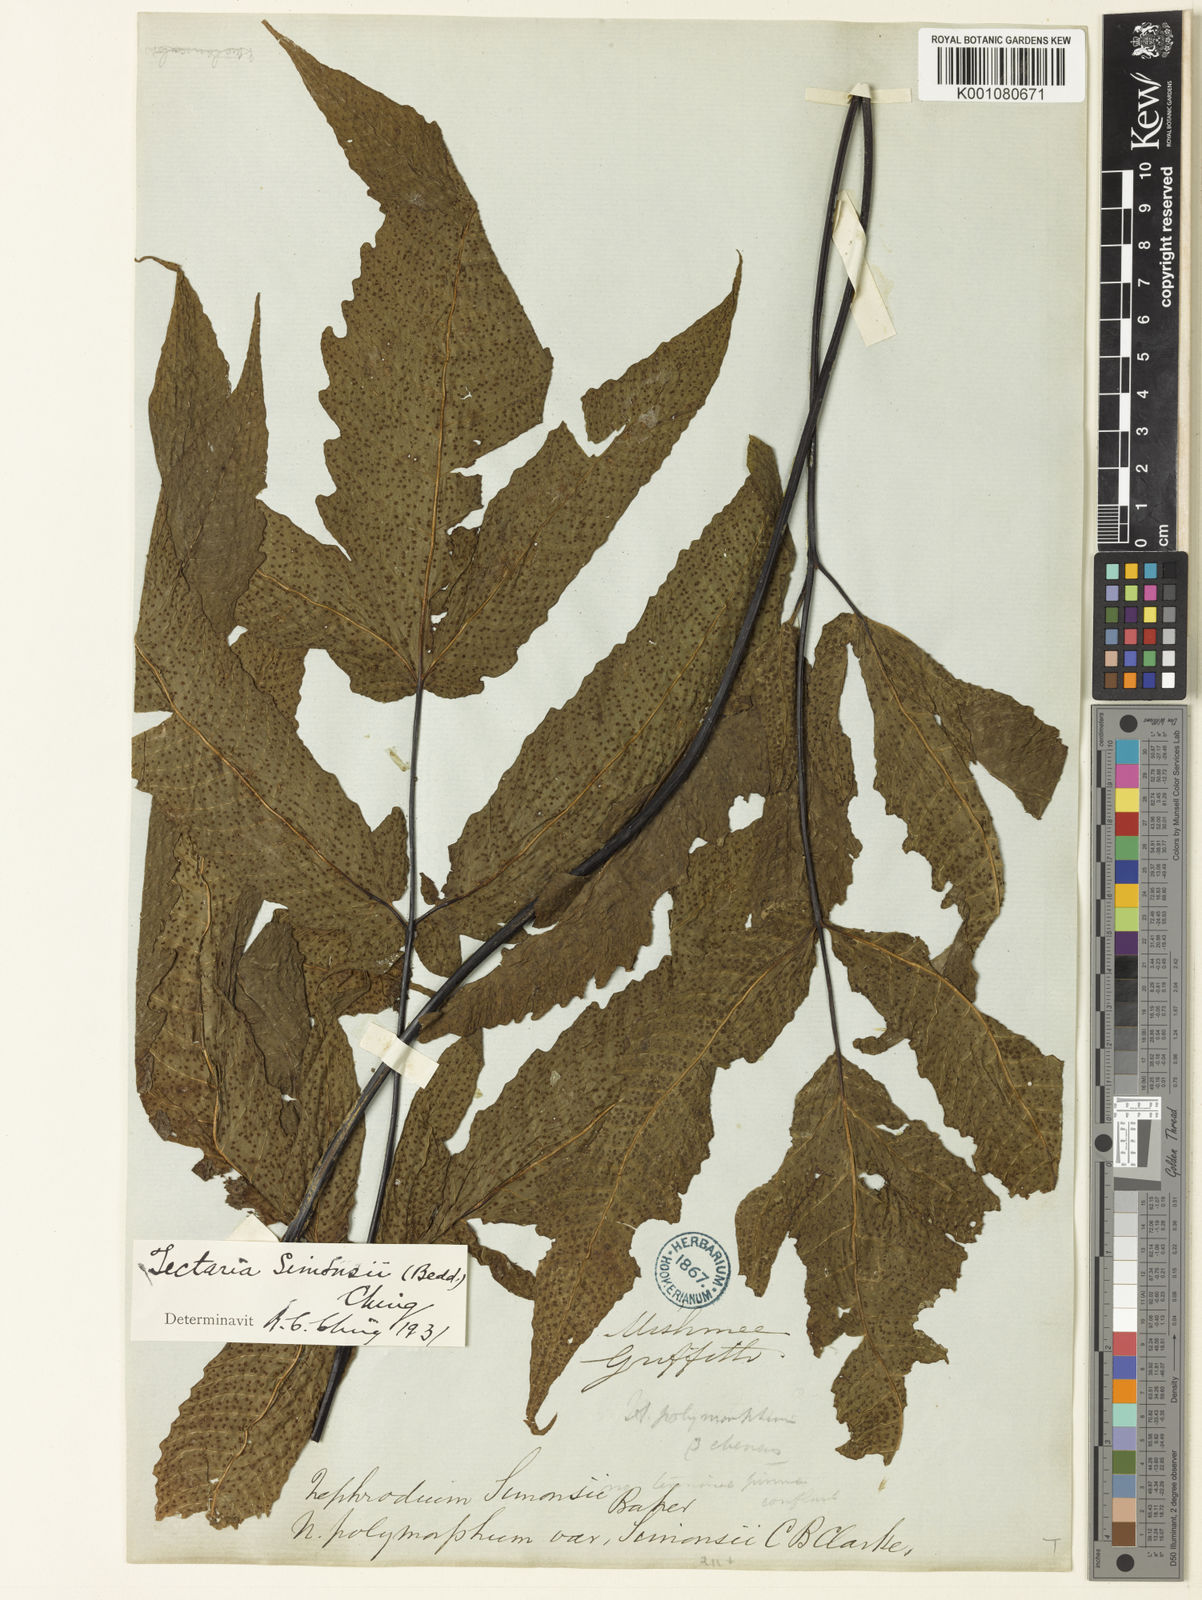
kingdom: Plantae
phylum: Tracheophyta
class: Polypodiopsida
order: Polypodiales
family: Tectariaceae
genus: Tectaria
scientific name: Tectaria simonsii
